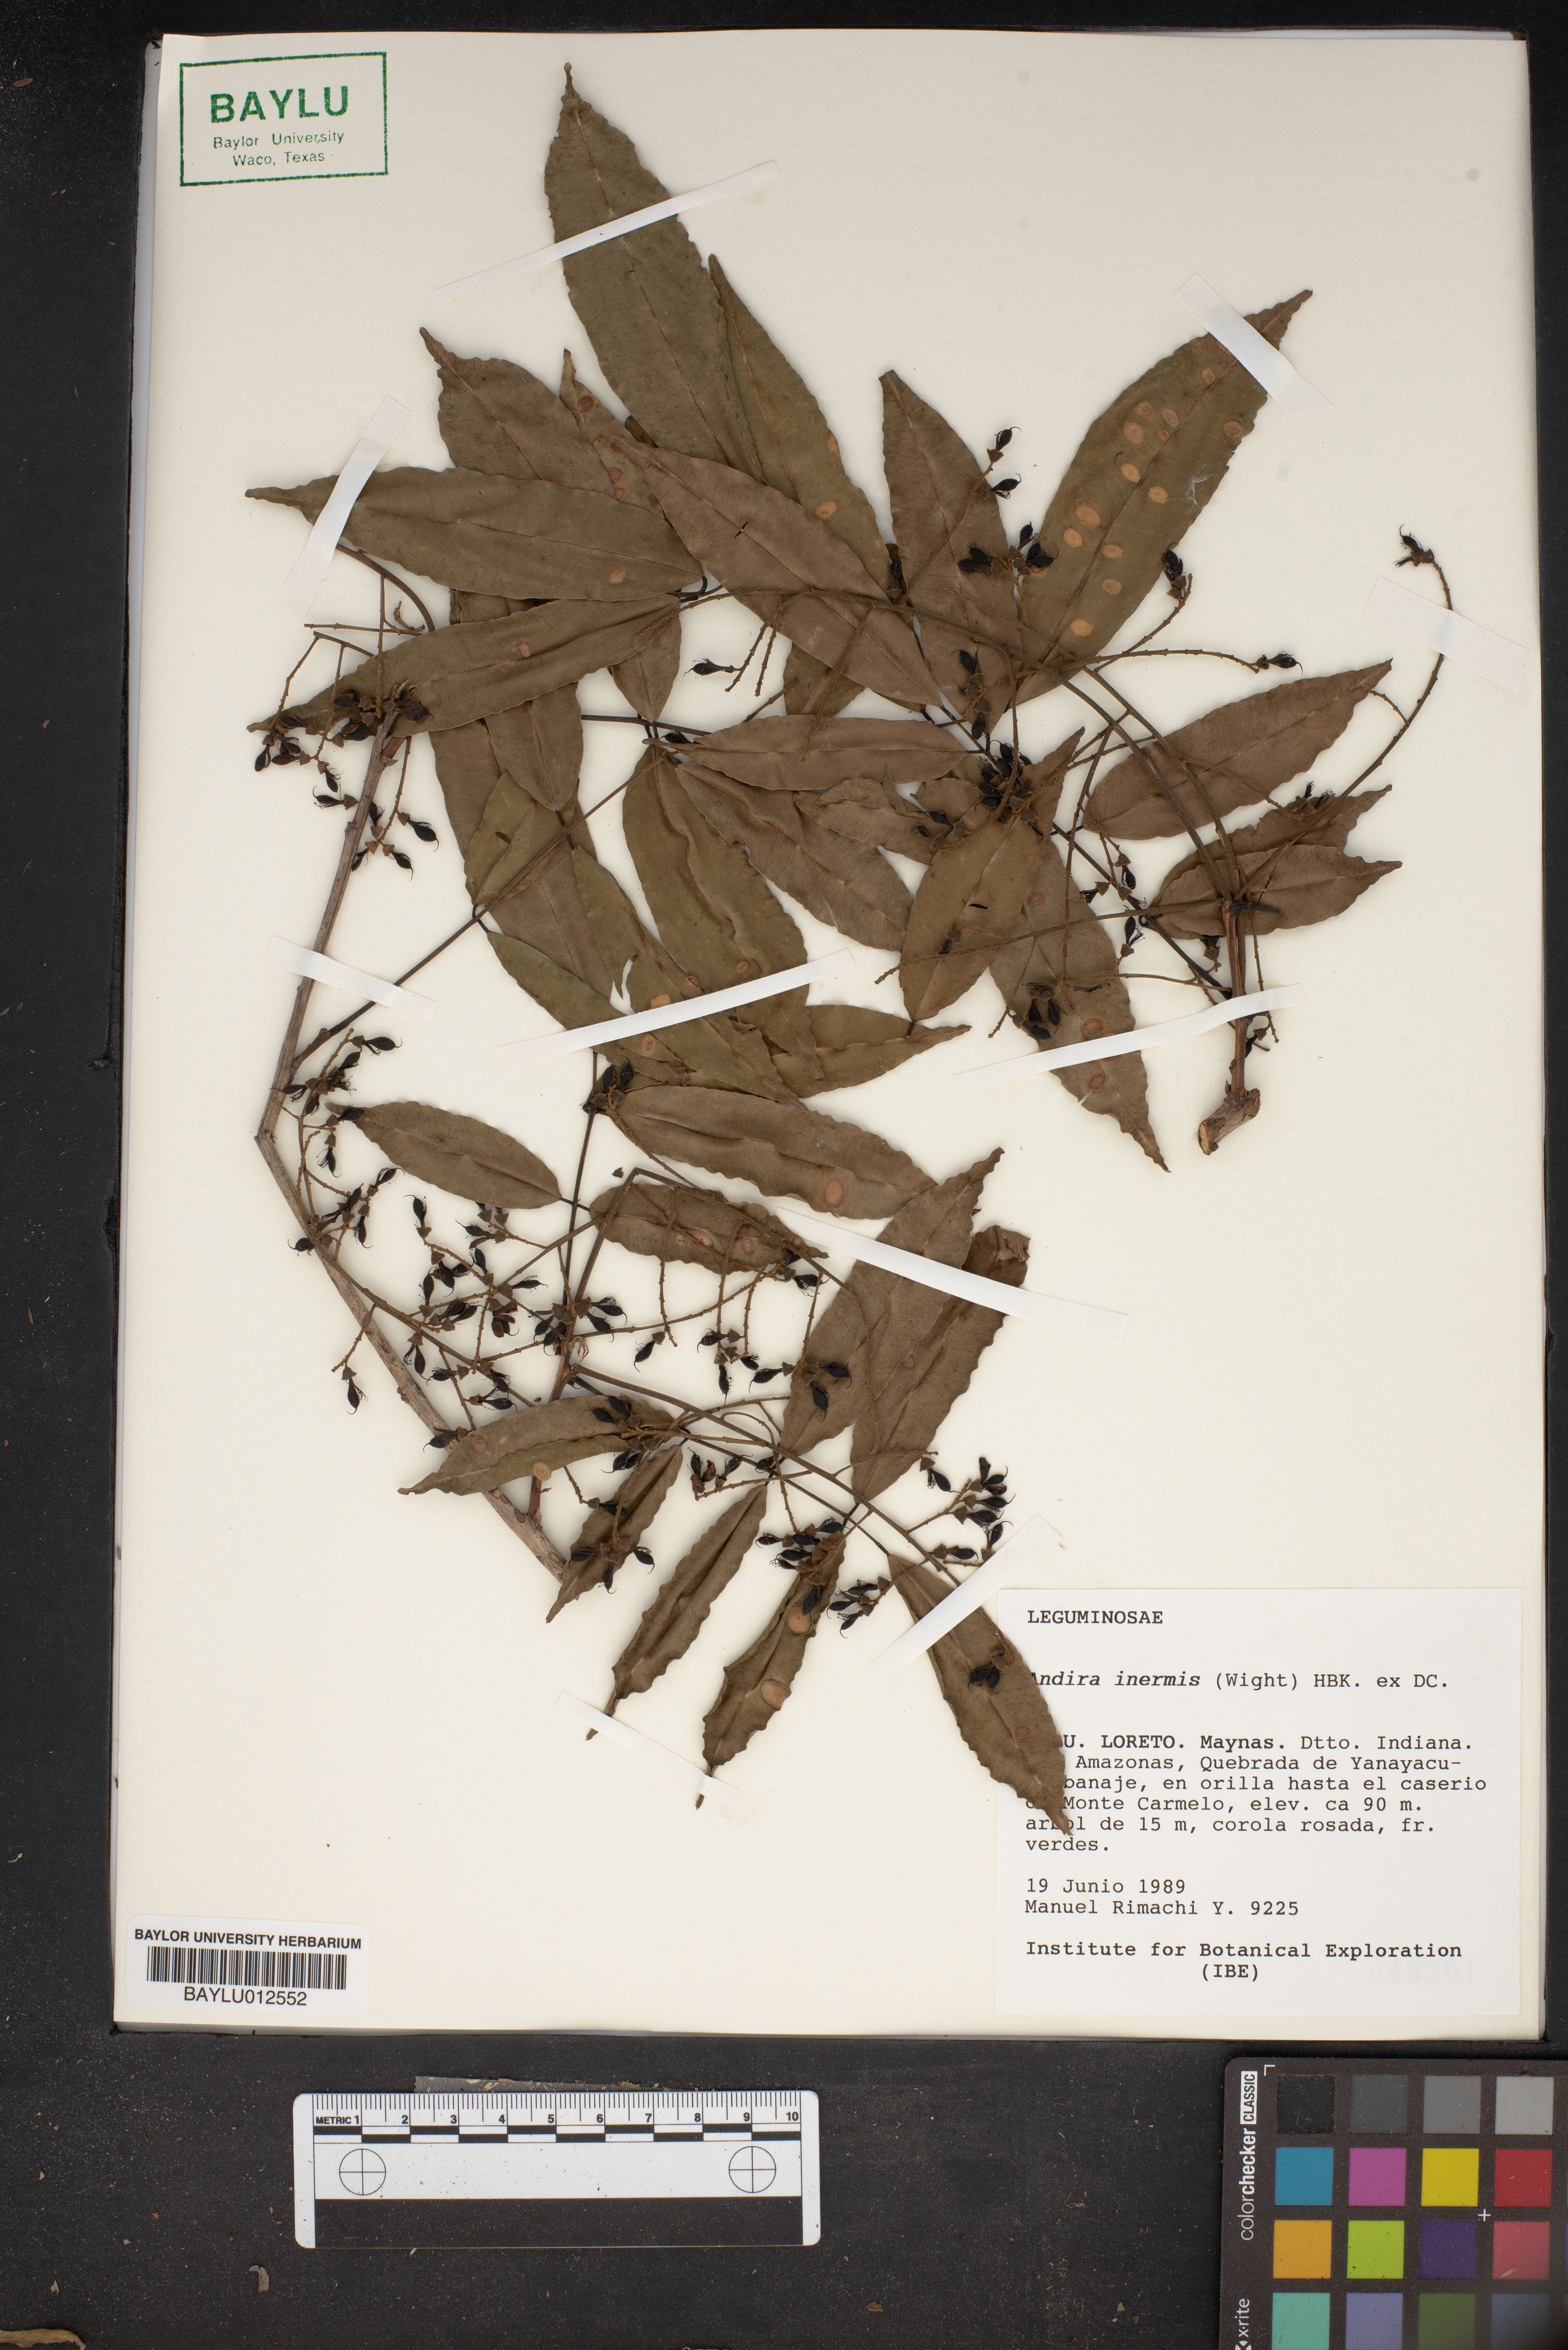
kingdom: Plantae
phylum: Tracheophyta
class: Magnoliopsida
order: Fabales
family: Fabaceae
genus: Andira
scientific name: Andira inermis
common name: Angelin
